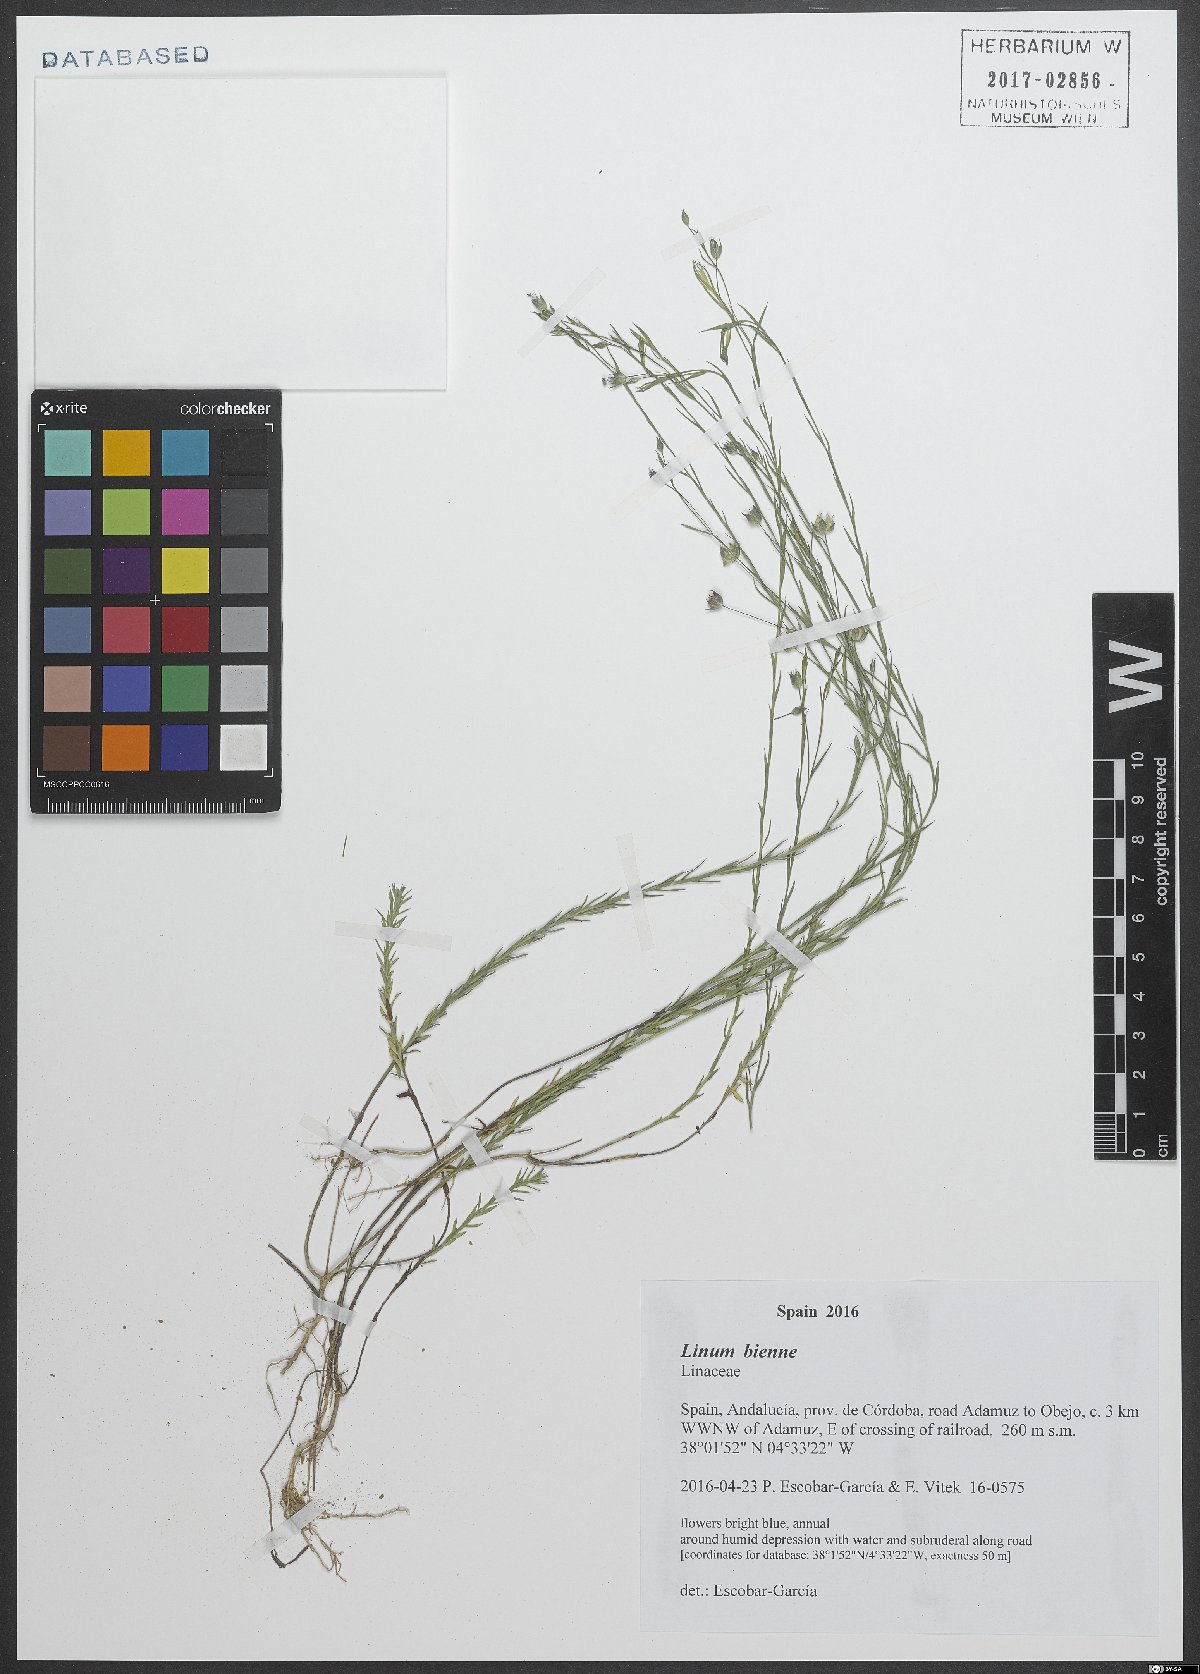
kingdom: Plantae
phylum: Tracheophyta
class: Magnoliopsida
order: Malpighiales
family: Linaceae
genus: Linum
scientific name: Linum bienne
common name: Pale flax
